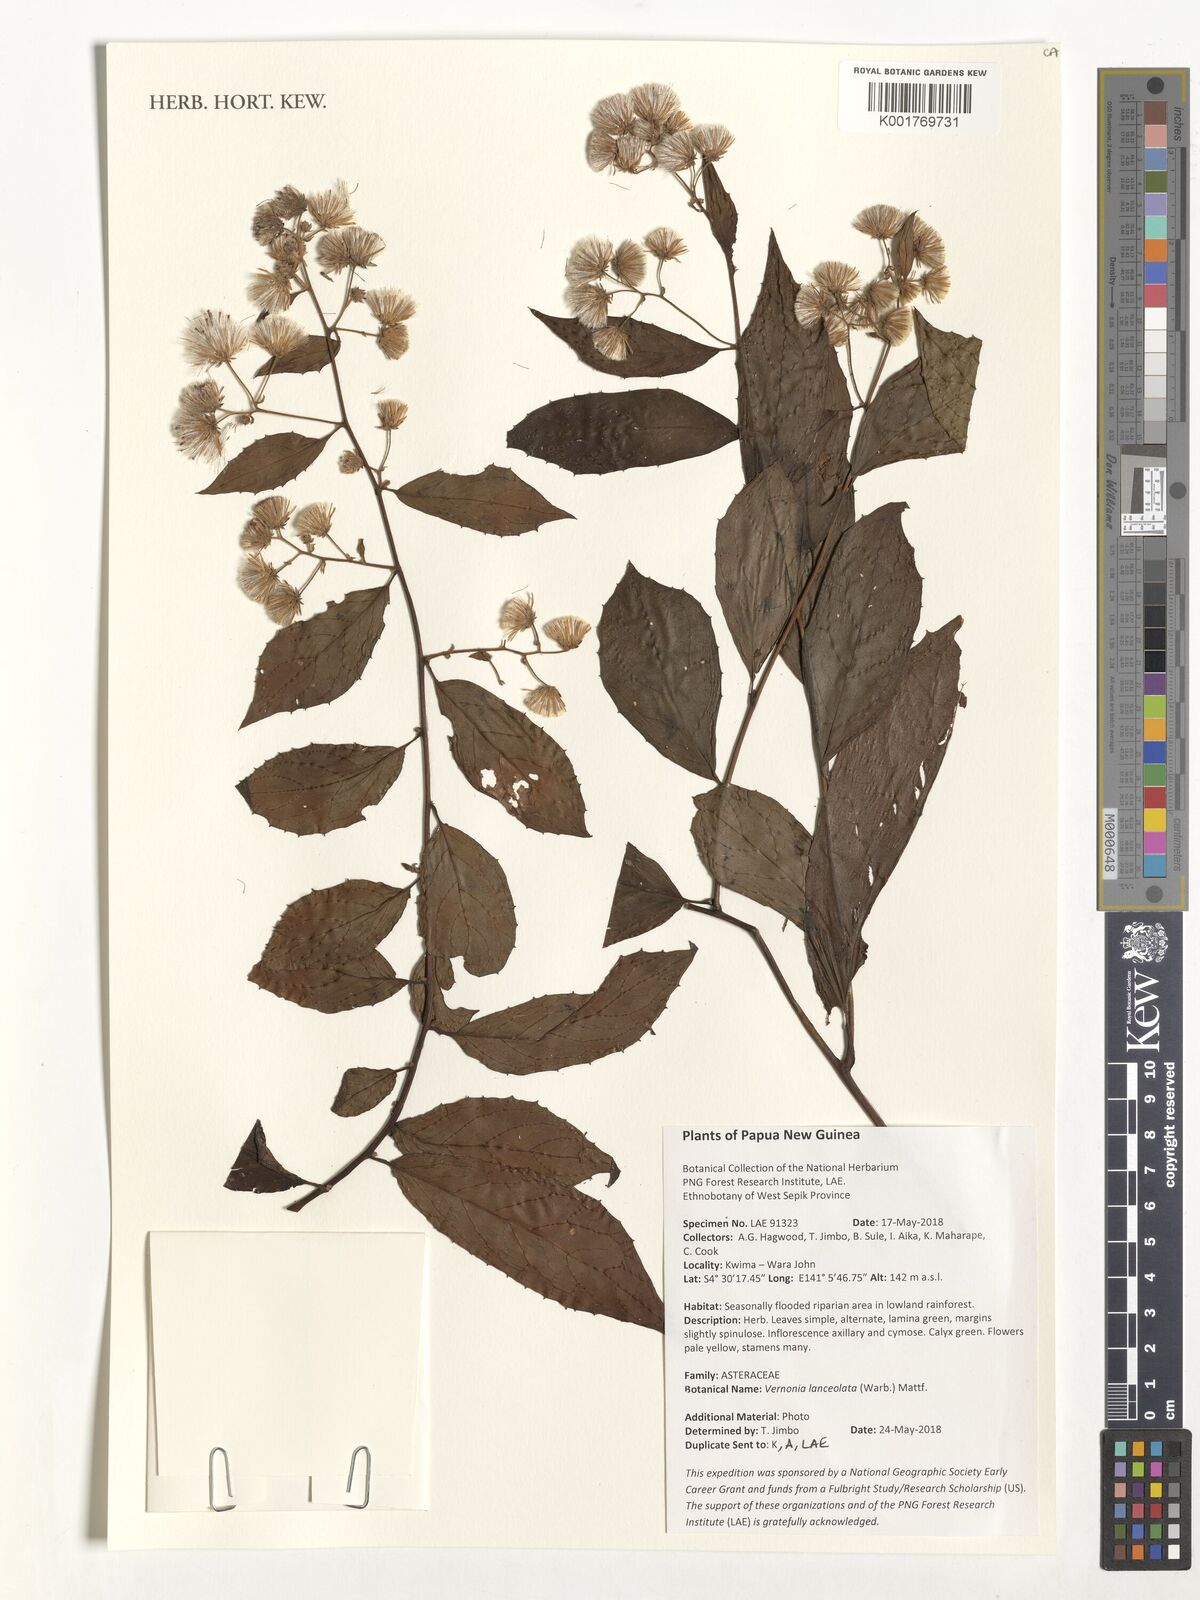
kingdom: Plantae
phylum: Tracheophyta
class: Magnoliopsida
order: Asterales
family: Asteraceae
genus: Vernonia
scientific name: Vernonia lanceolata
